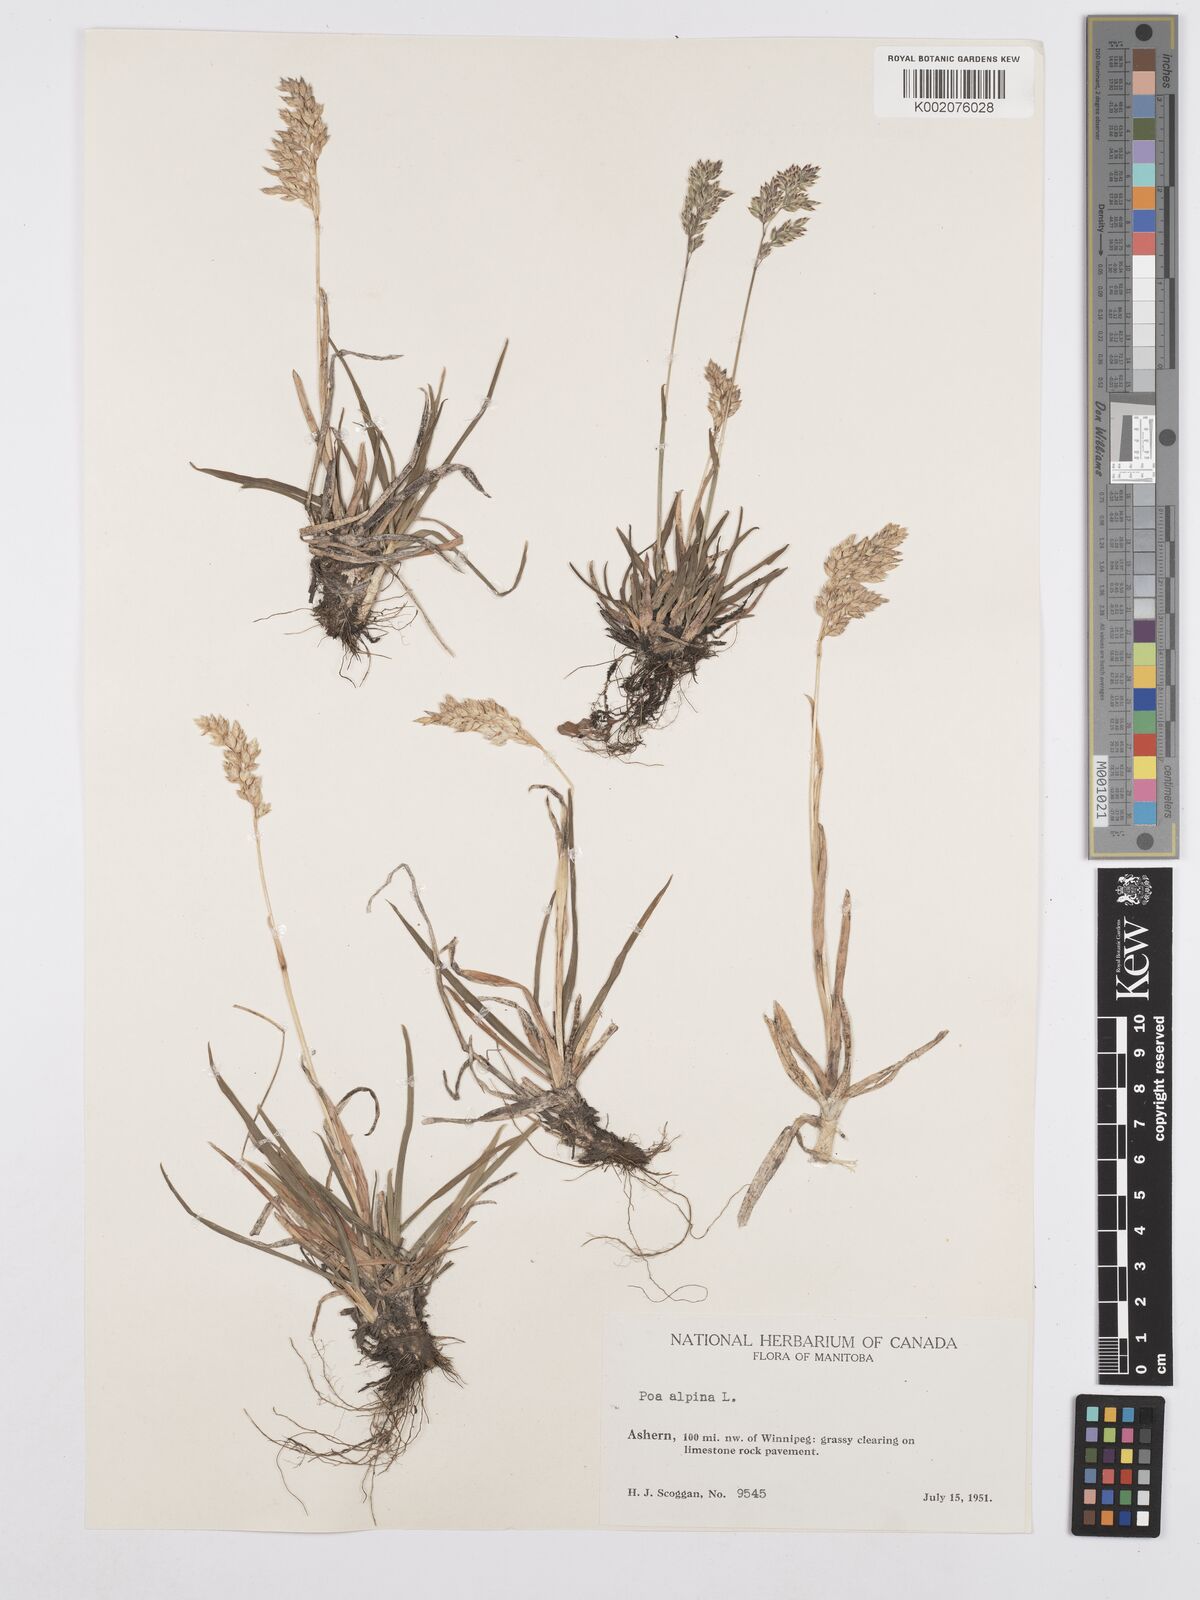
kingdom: Plantae
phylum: Tracheophyta
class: Liliopsida
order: Poales
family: Poaceae
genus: Poa
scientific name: Poa alpina
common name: Alpine bluegrass
